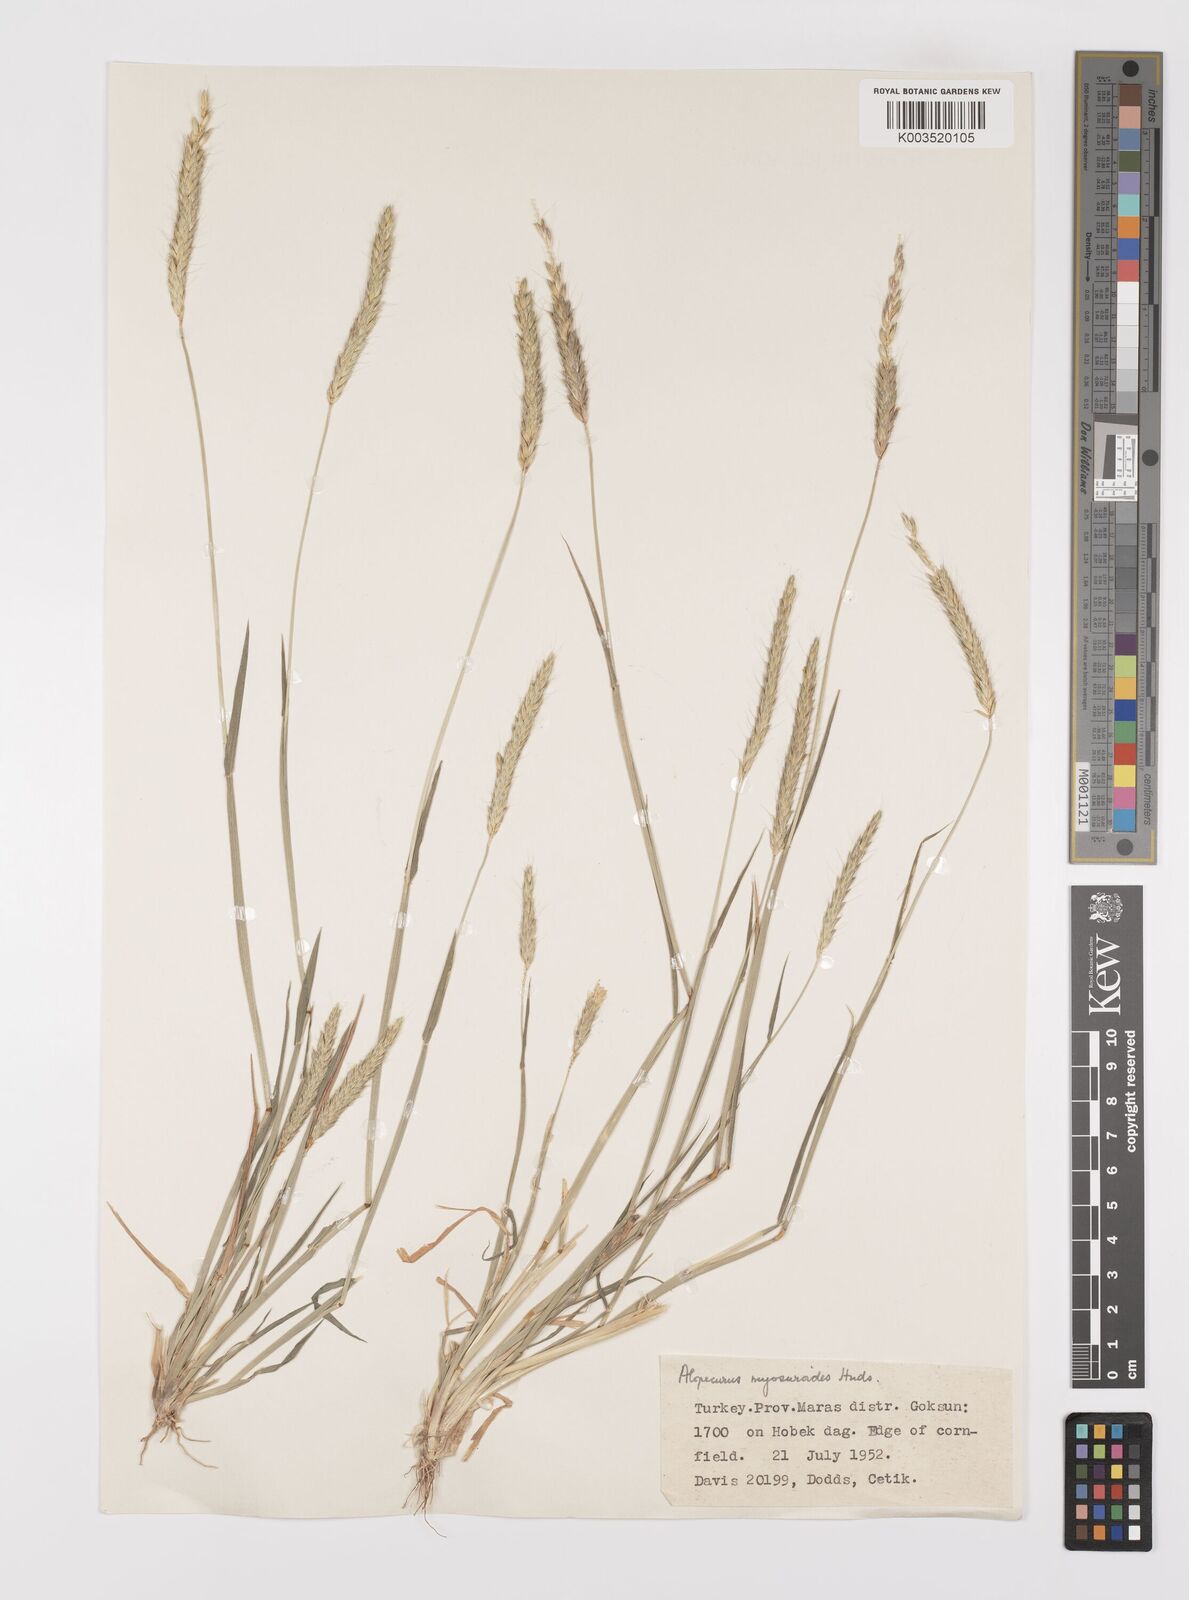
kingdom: Plantae
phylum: Tracheophyta
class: Liliopsida
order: Poales
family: Poaceae
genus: Alopecurus
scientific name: Alopecurus myosuroides
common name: Black-grass
